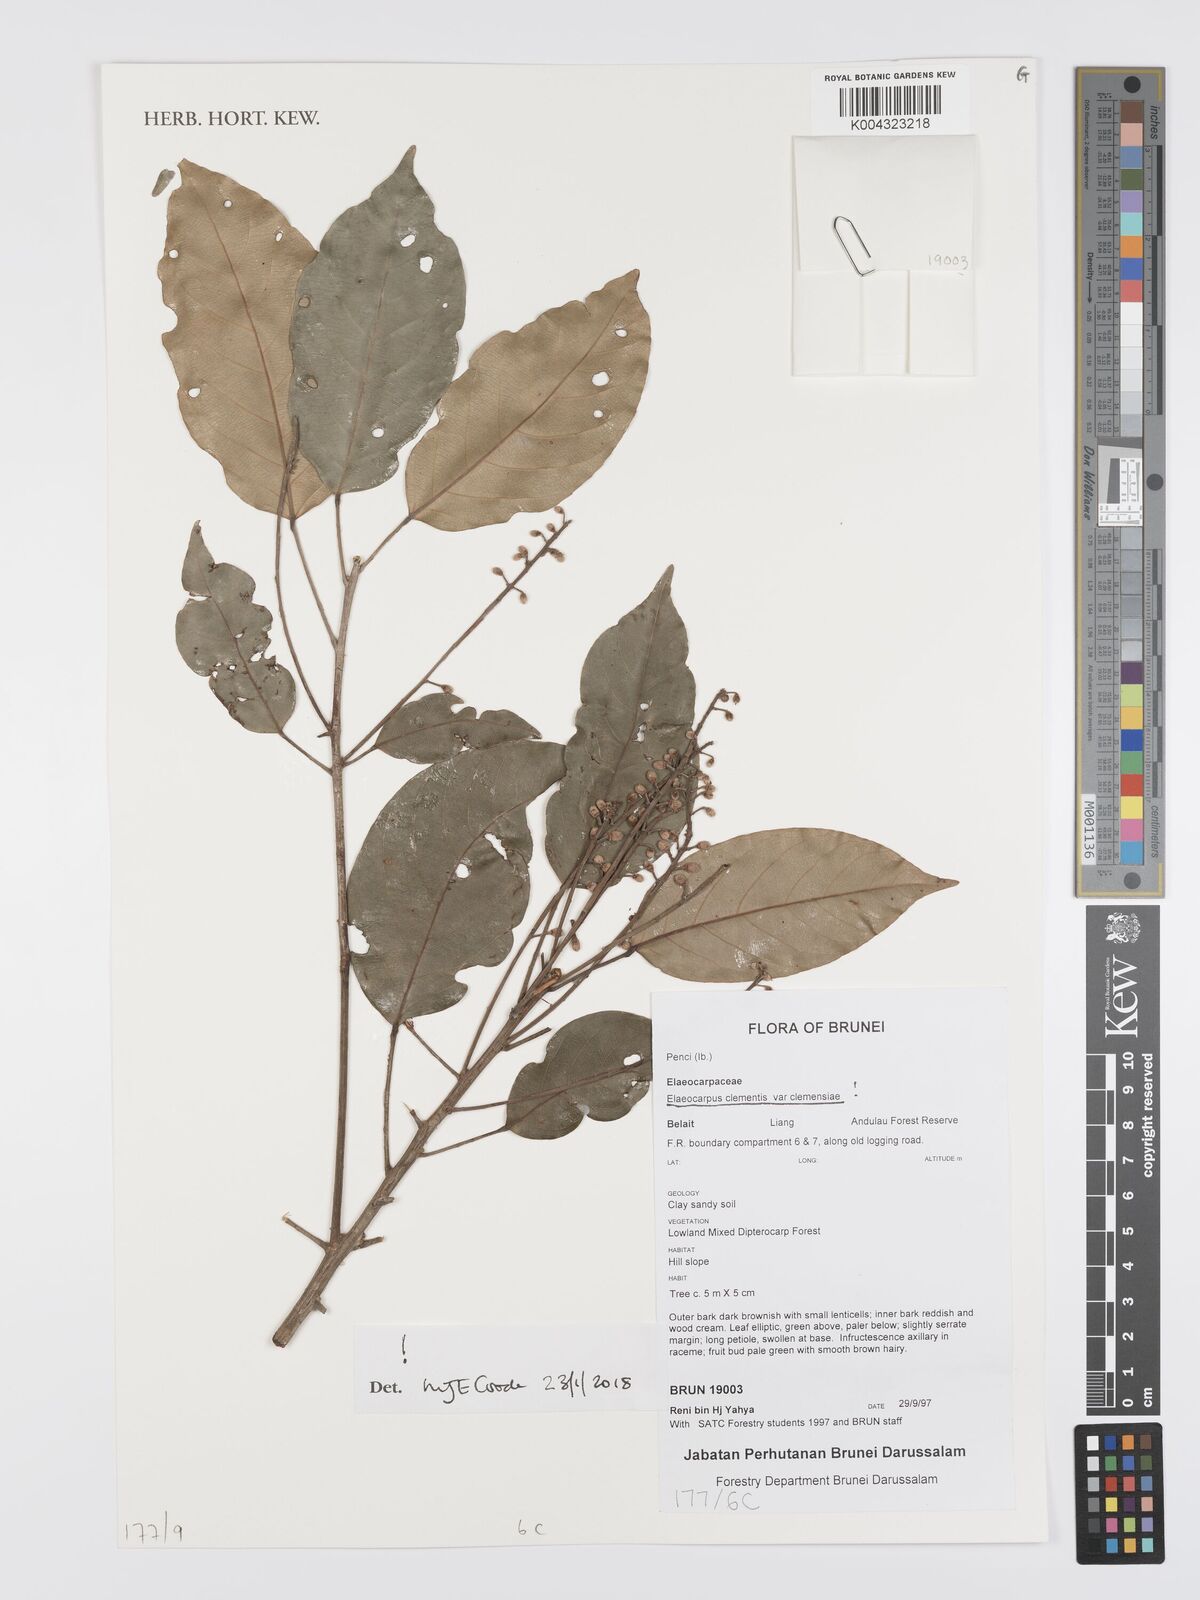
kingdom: Plantae
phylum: Tracheophyta
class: Magnoliopsida
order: Oxalidales
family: Elaeocarpaceae
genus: Elaeocarpus
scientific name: Elaeocarpus clementis
